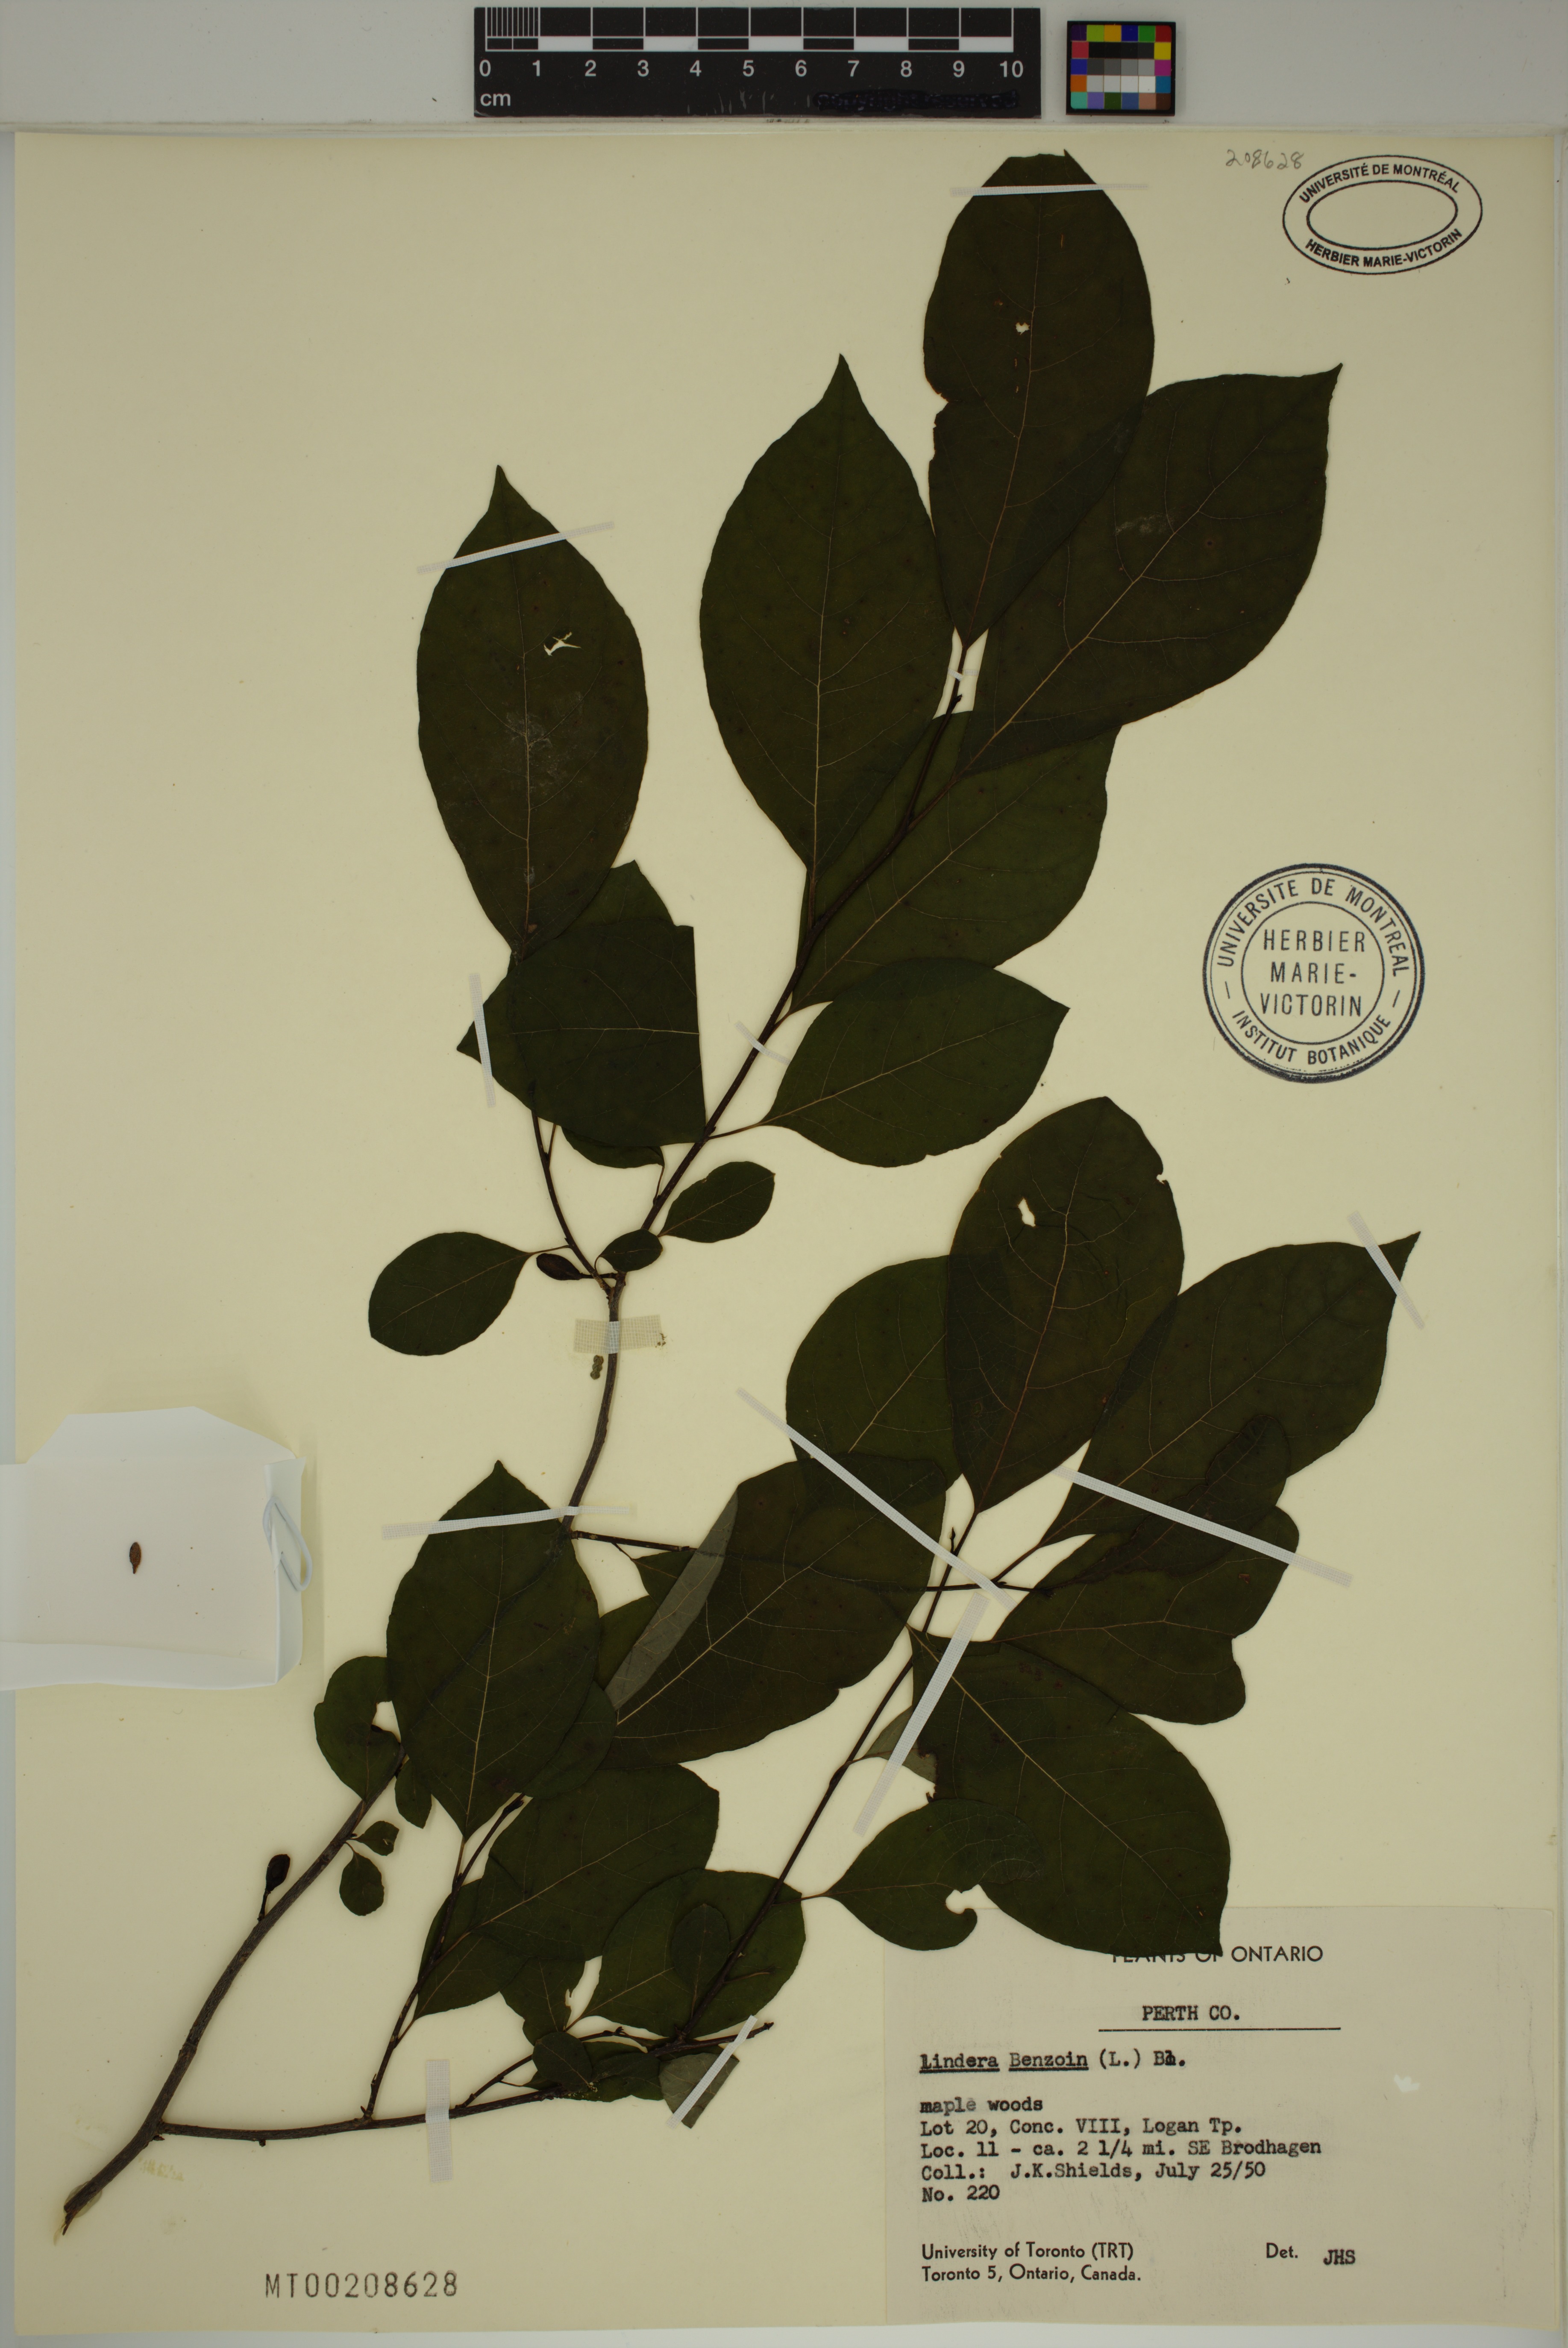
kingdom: Plantae
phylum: Tracheophyta
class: Magnoliopsida
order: Laurales
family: Lauraceae
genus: Lindera
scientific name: Lindera benzoin
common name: Spicebush
